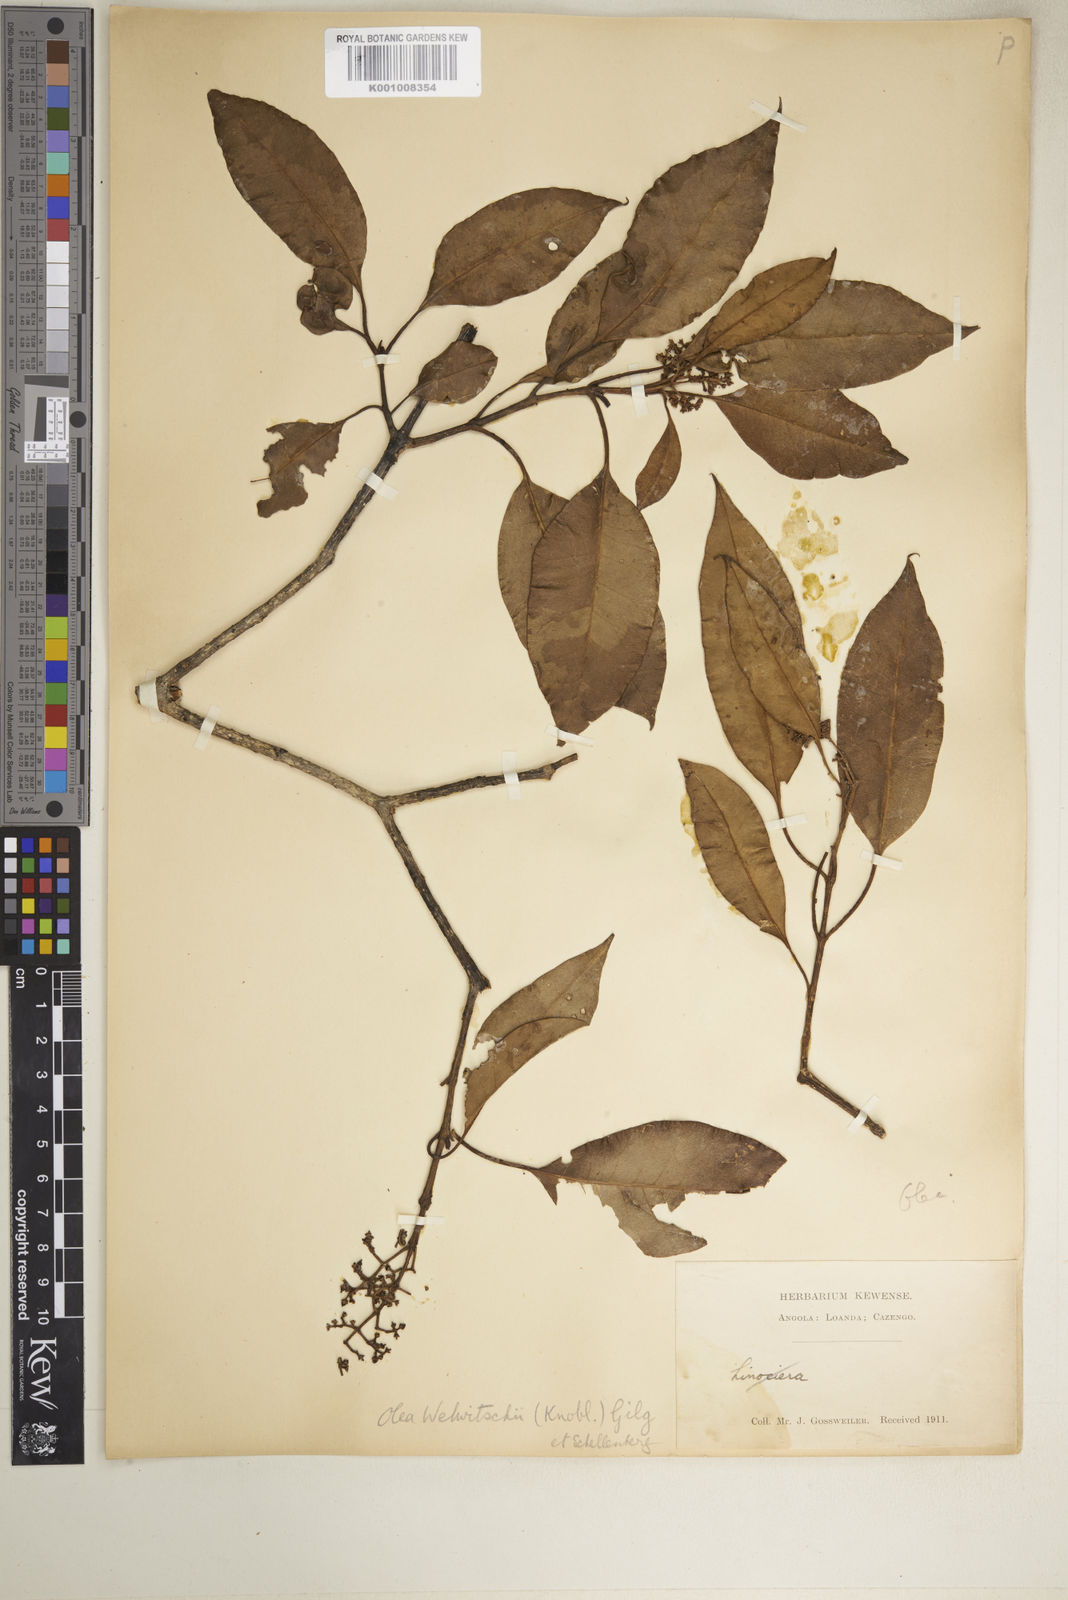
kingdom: Plantae
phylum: Tracheophyta
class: Magnoliopsida
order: Lamiales
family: Oleaceae
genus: Olea
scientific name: Olea welwitschii
